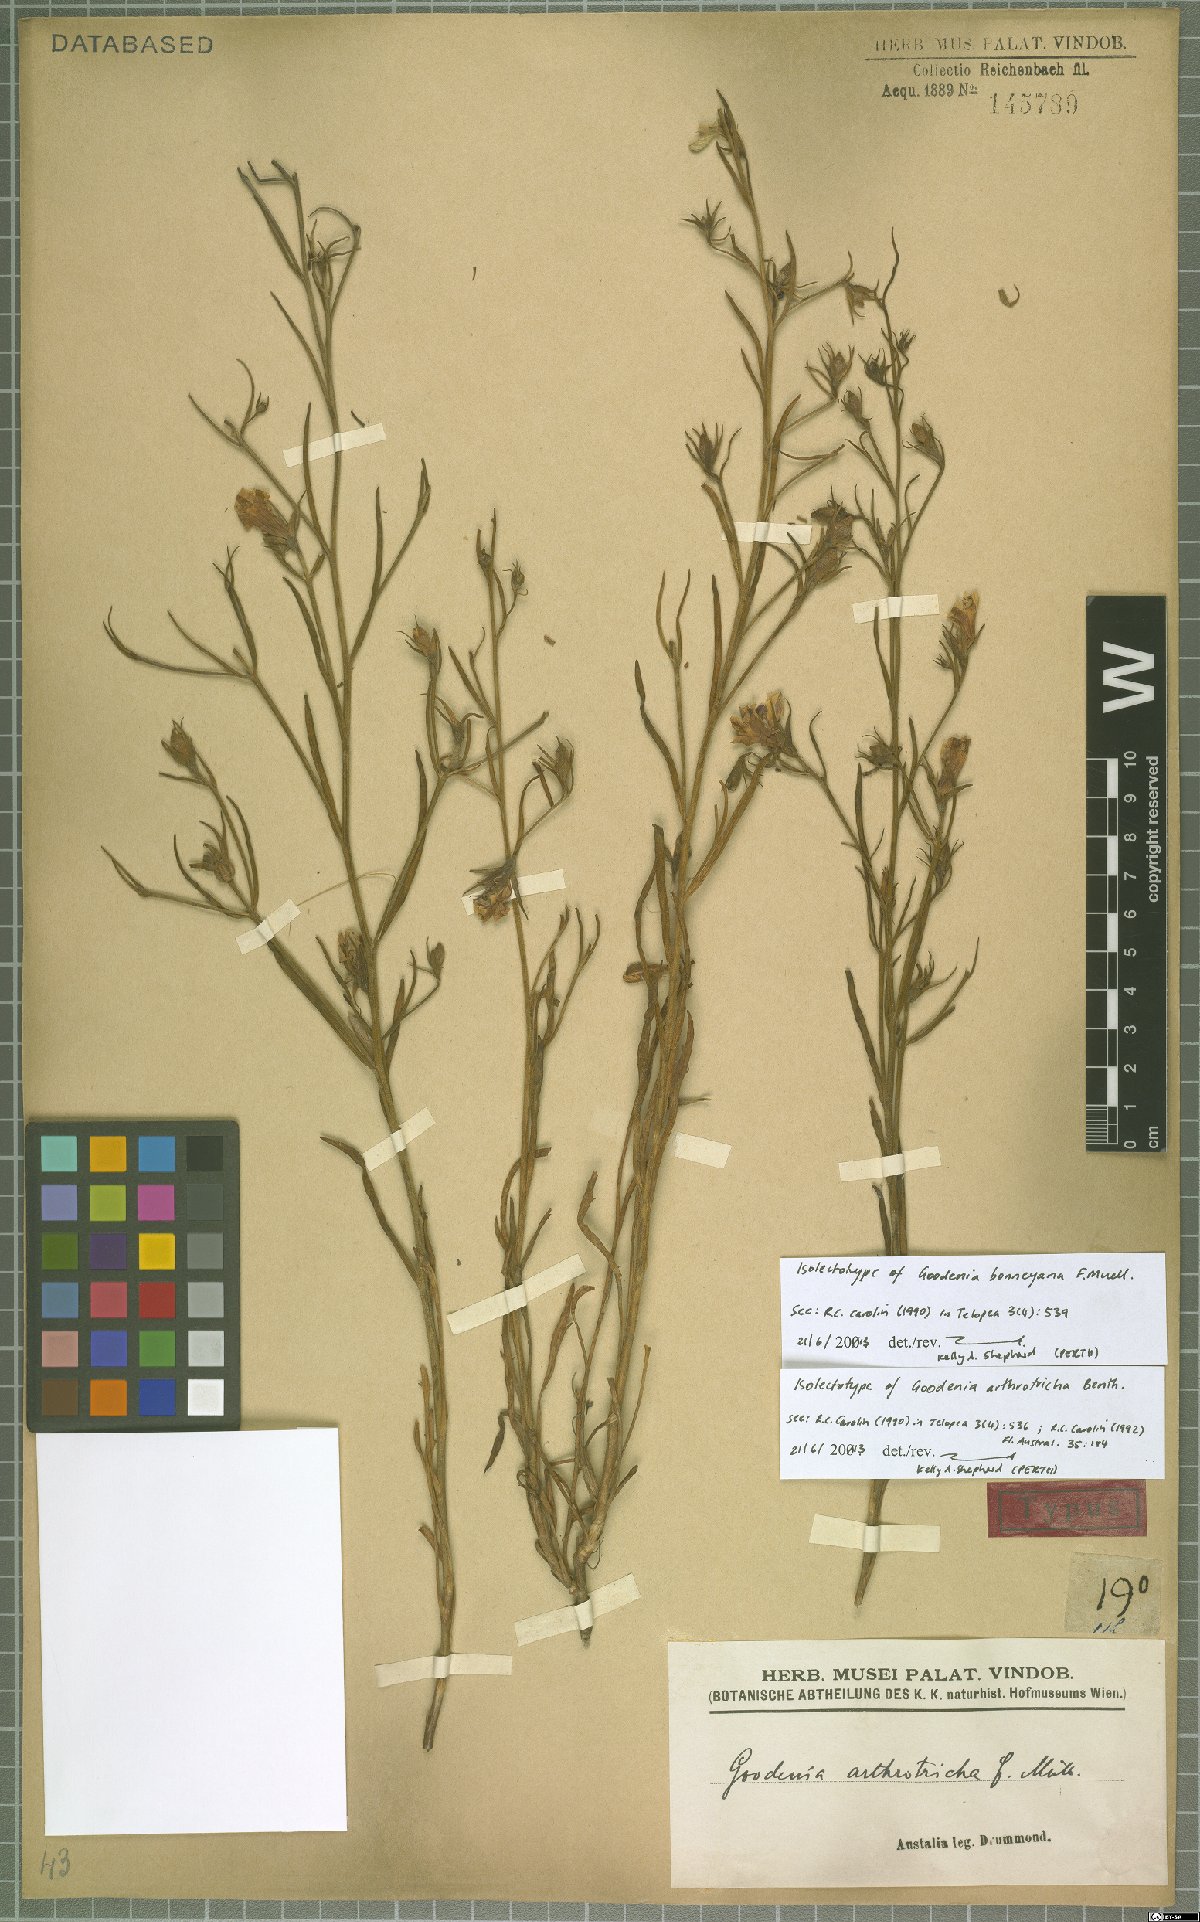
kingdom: Plantae
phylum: Tracheophyta
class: Magnoliopsida
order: Asterales
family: Goodeniaceae
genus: Goodenia
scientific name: Goodenia arthrotricha
